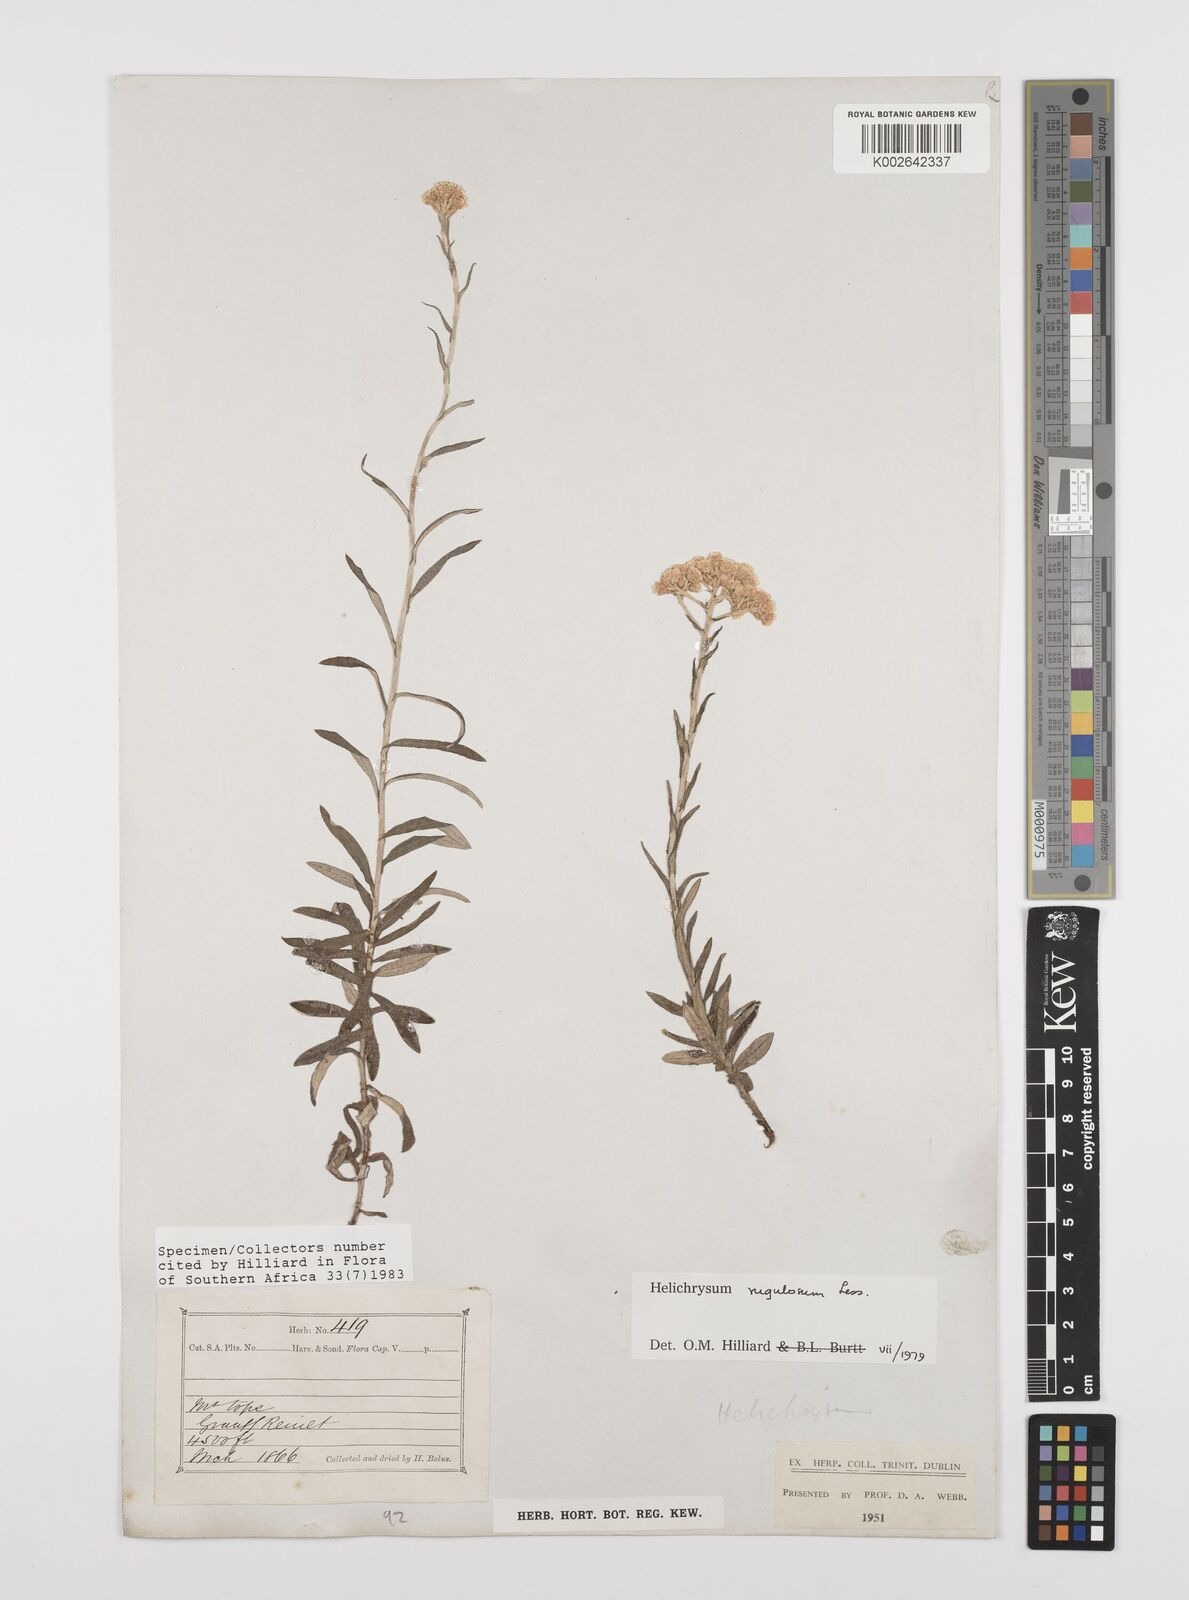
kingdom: Plantae
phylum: Tracheophyta
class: Magnoliopsida
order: Asterales
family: Asteraceae
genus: Helichrysum
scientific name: Helichrysum rugulosum
